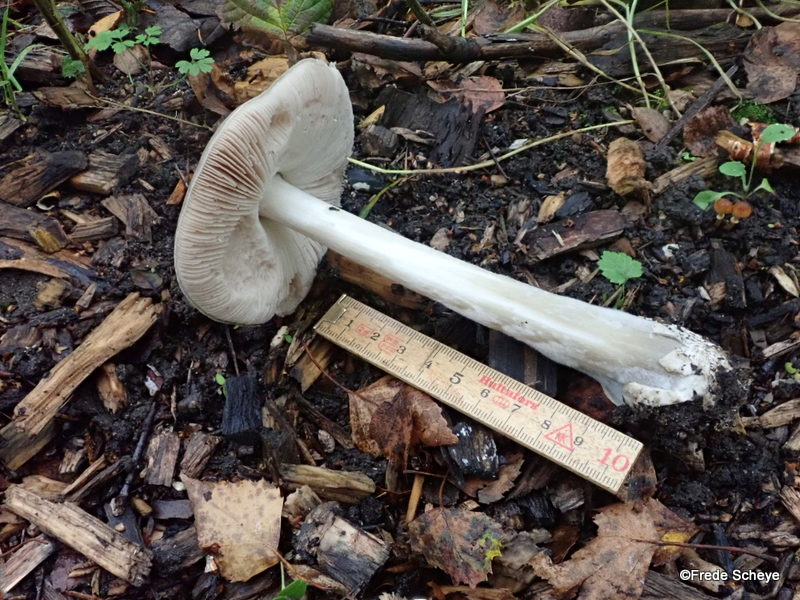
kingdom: Fungi
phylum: Basidiomycota
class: Agaricomycetes
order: Agaricales
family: Pluteaceae
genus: Volvopluteus
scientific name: Volvopluteus gloiocephalus
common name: høj posesvamp
